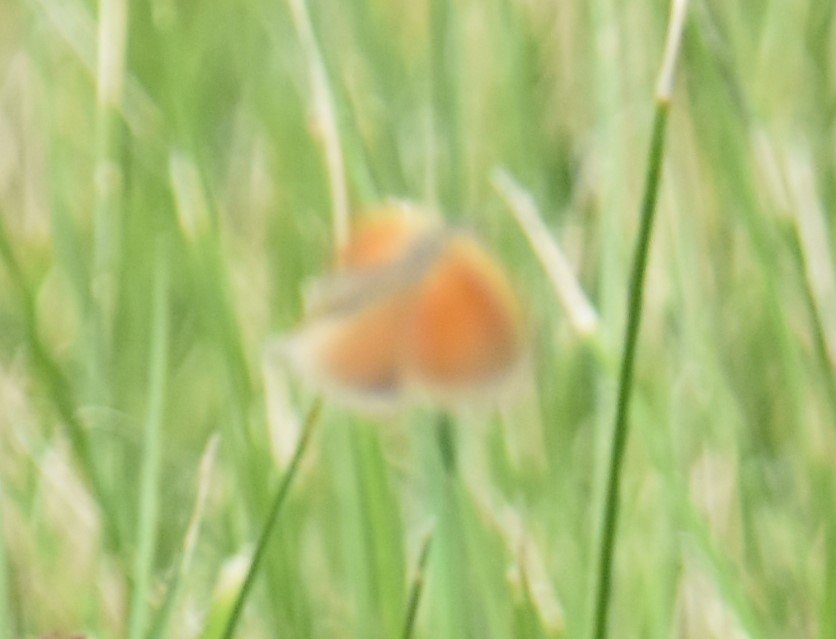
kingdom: Animalia
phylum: Arthropoda
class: Insecta
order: Lepidoptera
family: Nymphalidae
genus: Coenonympha
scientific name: Coenonympha tullia
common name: Large Heath
